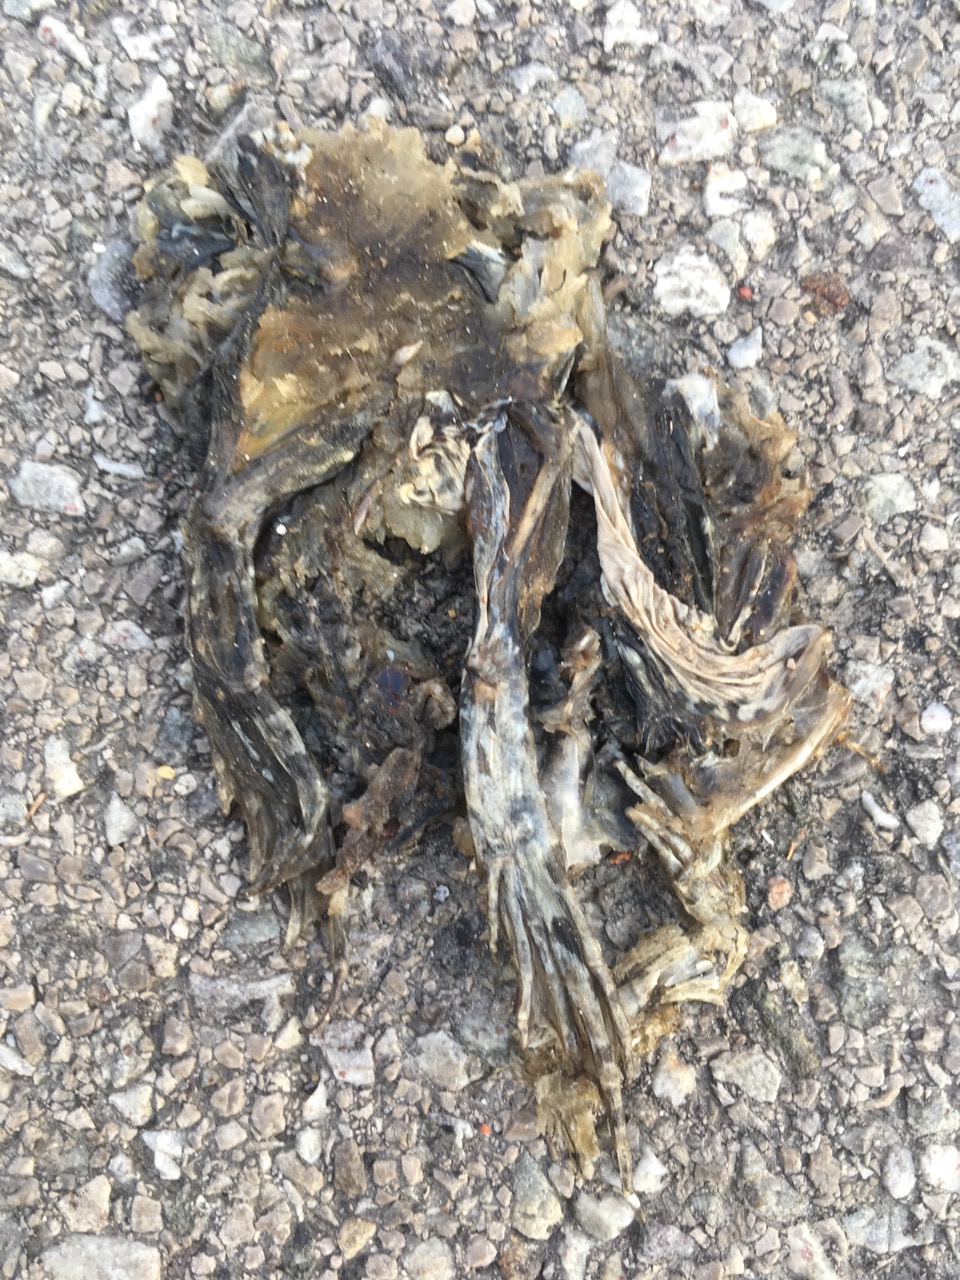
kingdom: Animalia
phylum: Chordata
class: Amphibia
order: Anura
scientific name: Anura
